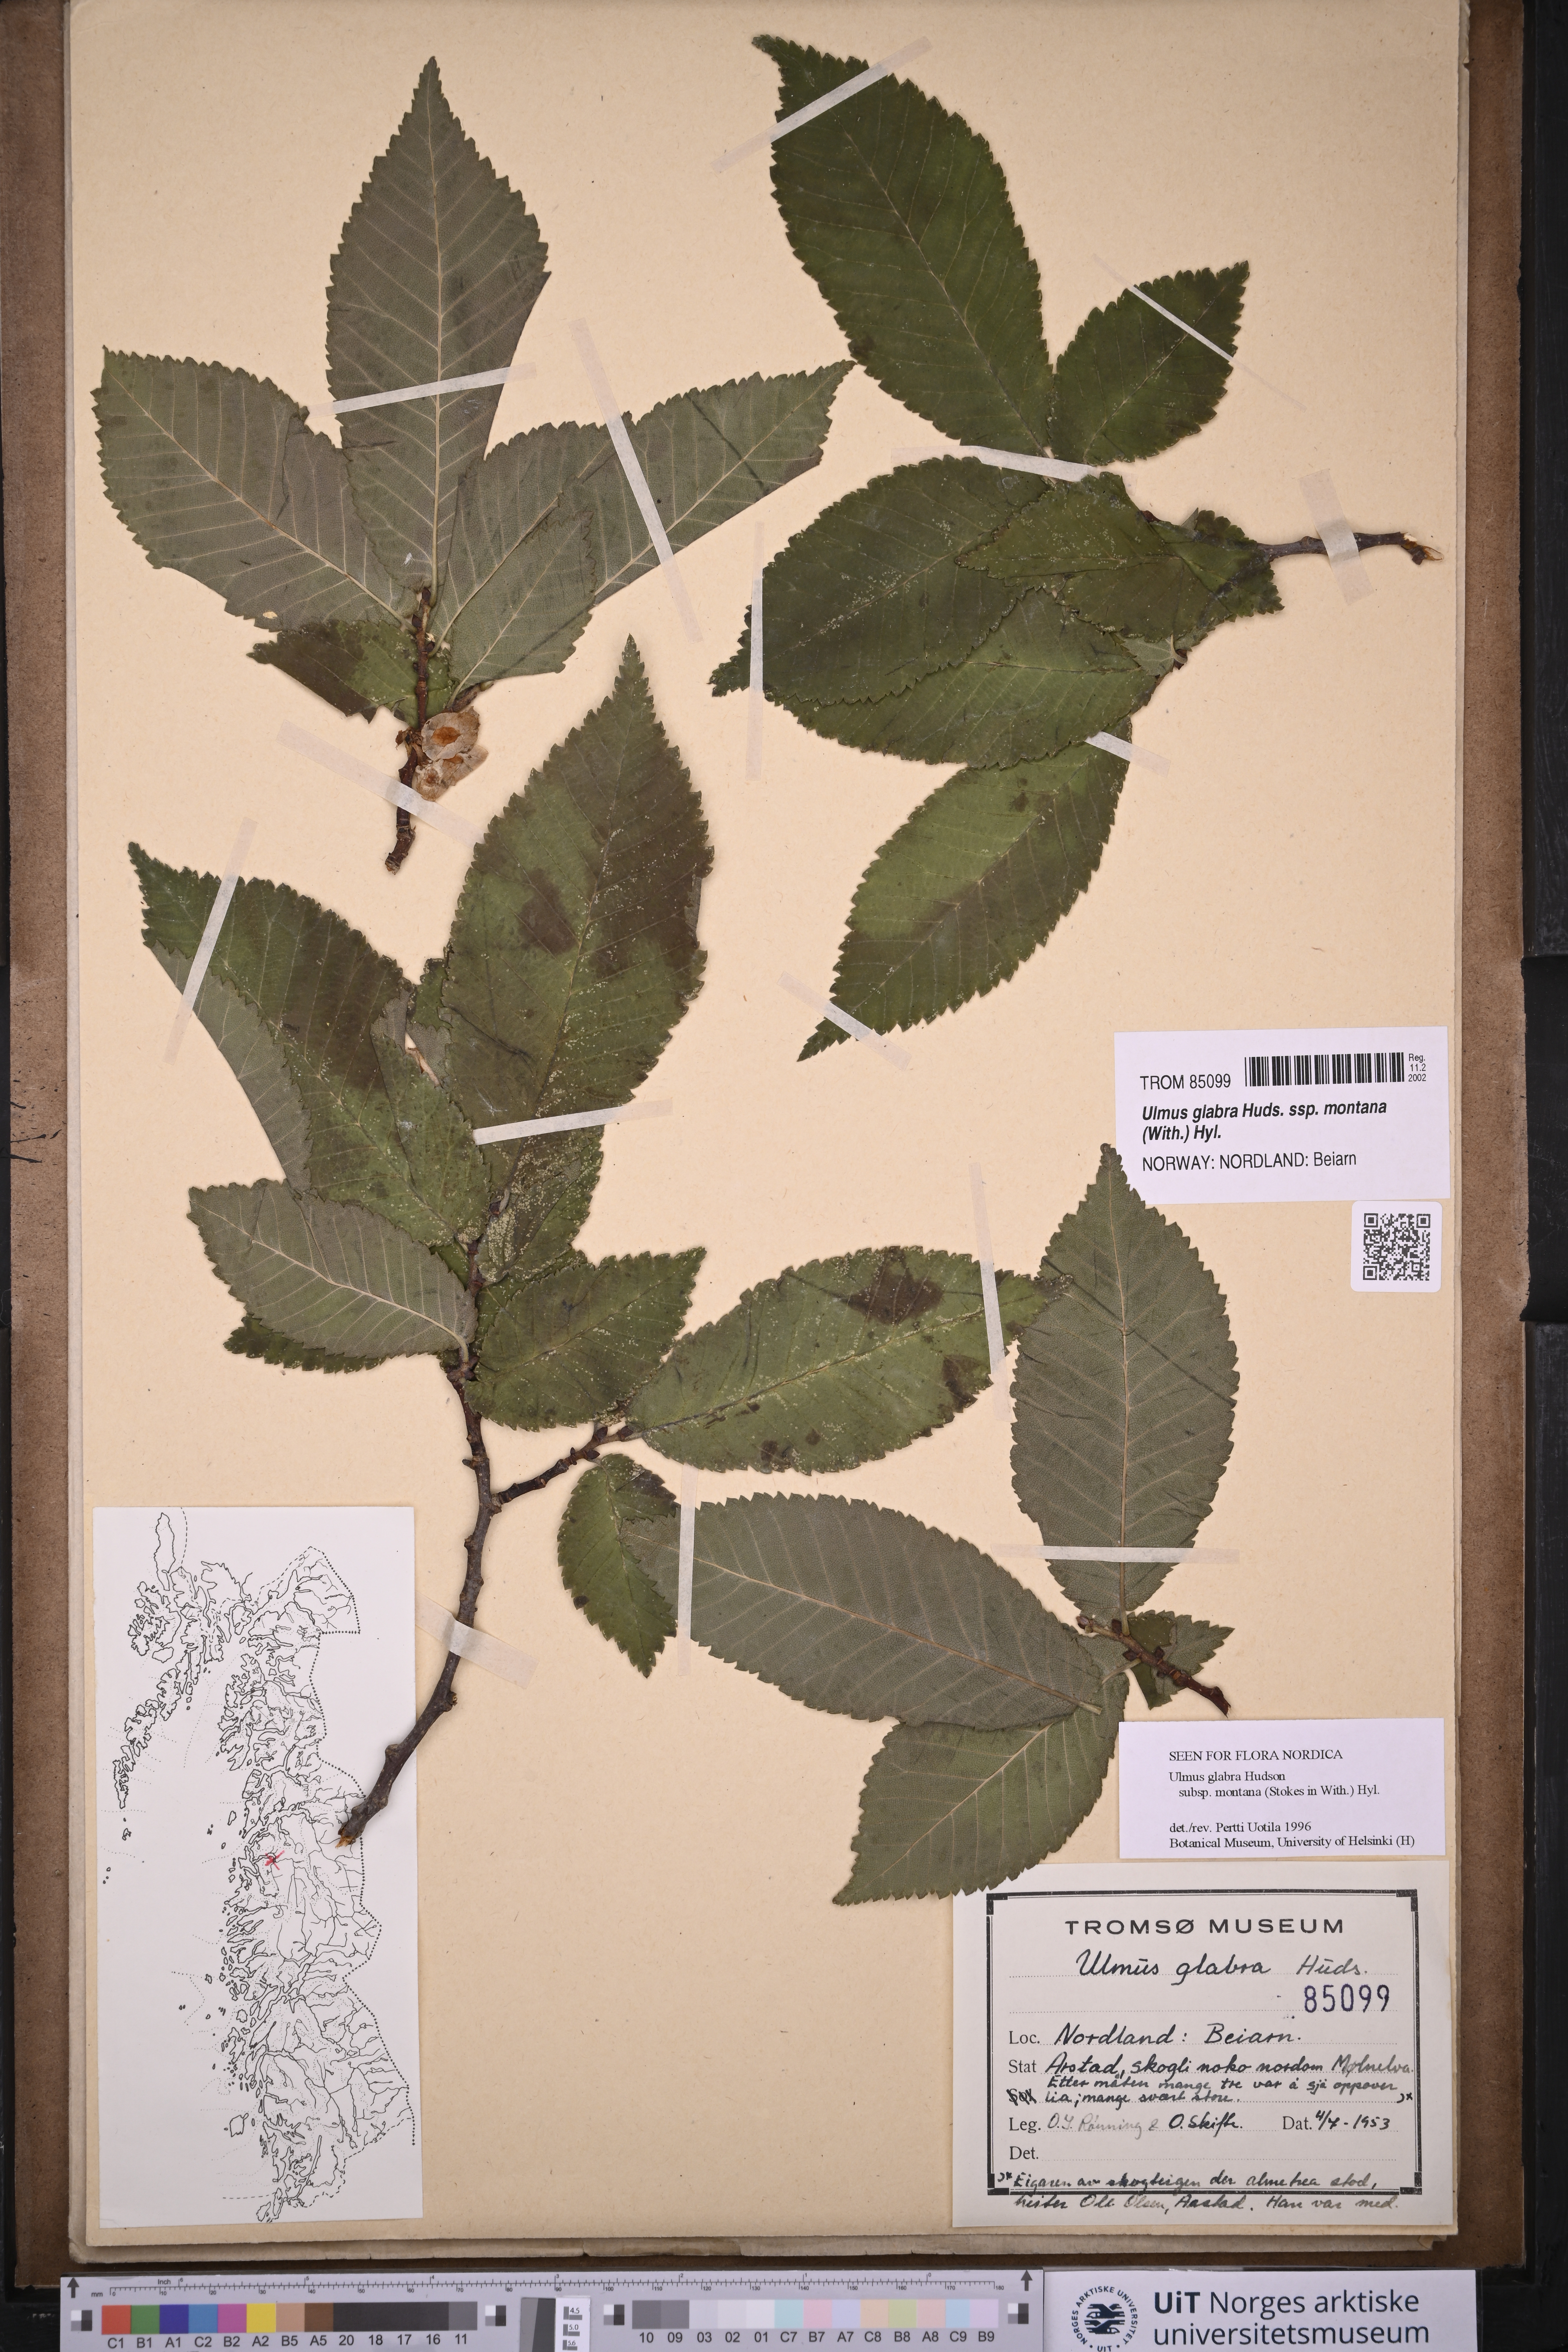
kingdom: Plantae
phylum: Tracheophyta
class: Magnoliopsida
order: Rosales
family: Ulmaceae
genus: Ulmus
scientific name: Ulmus glabra
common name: Wych elm
